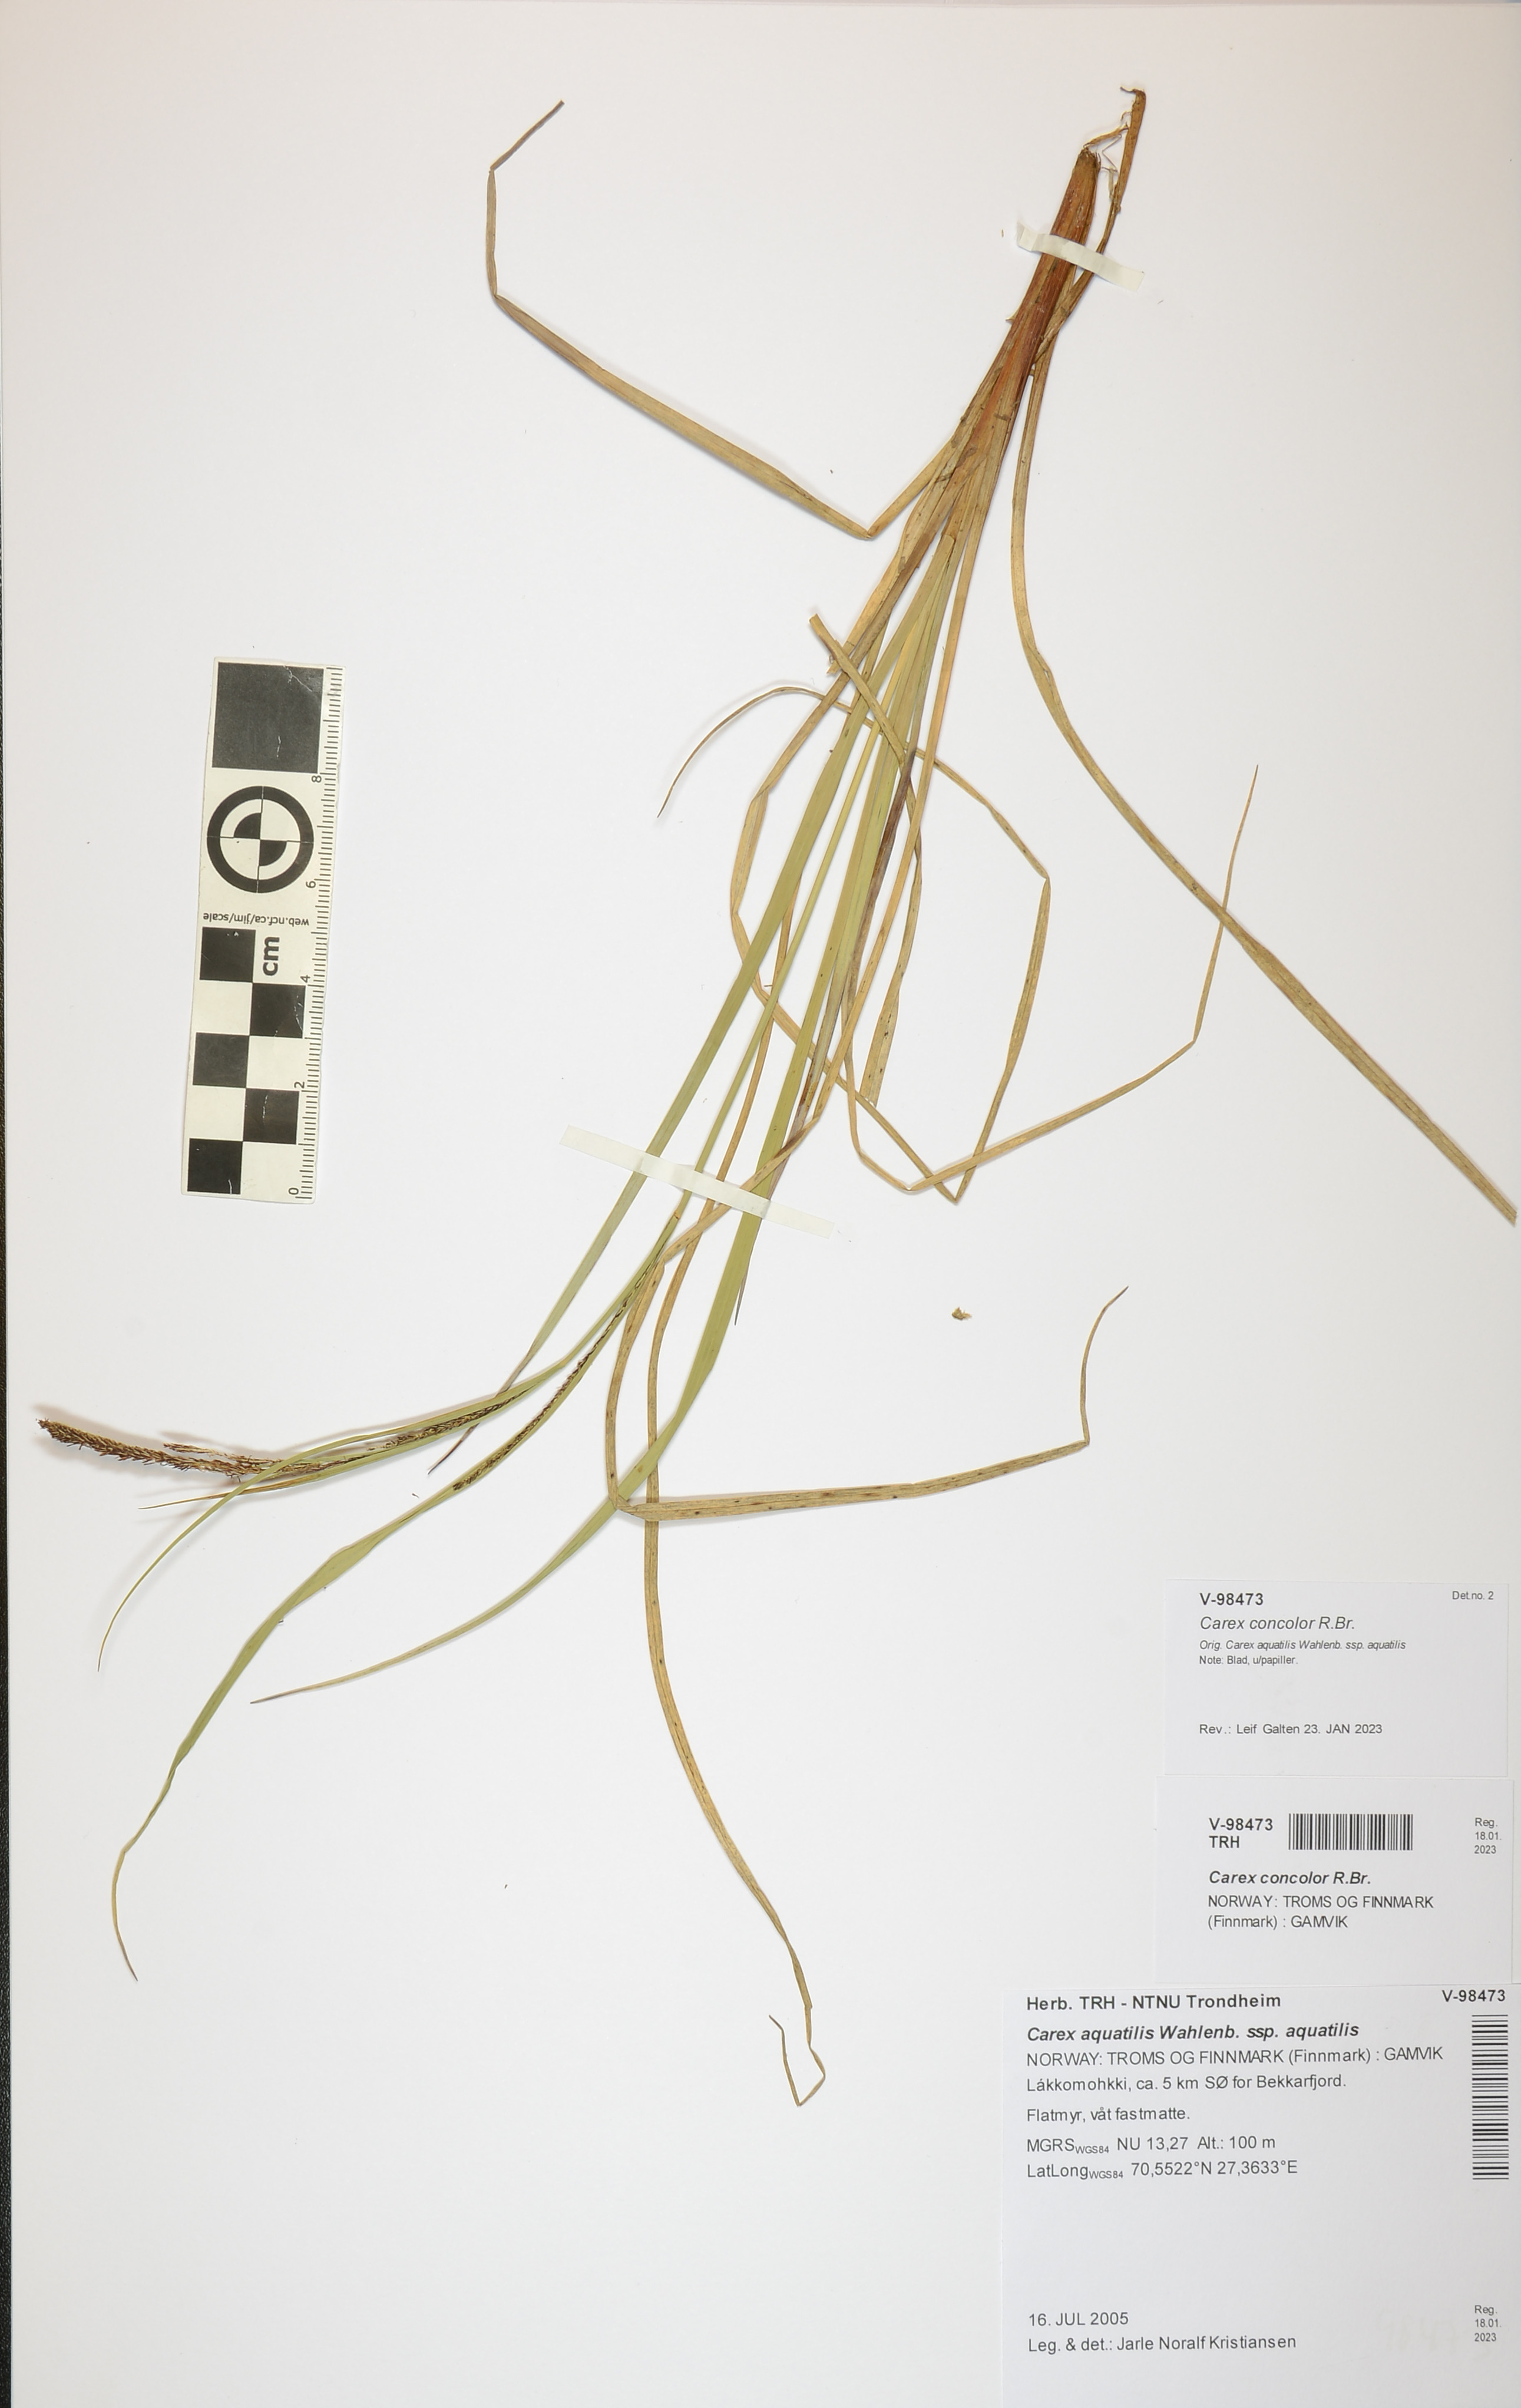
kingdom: Plantae
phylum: Tracheophyta
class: Liliopsida
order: Poales
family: Cyperaceae
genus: Carex
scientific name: Carex aquatilis
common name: Water sedge
